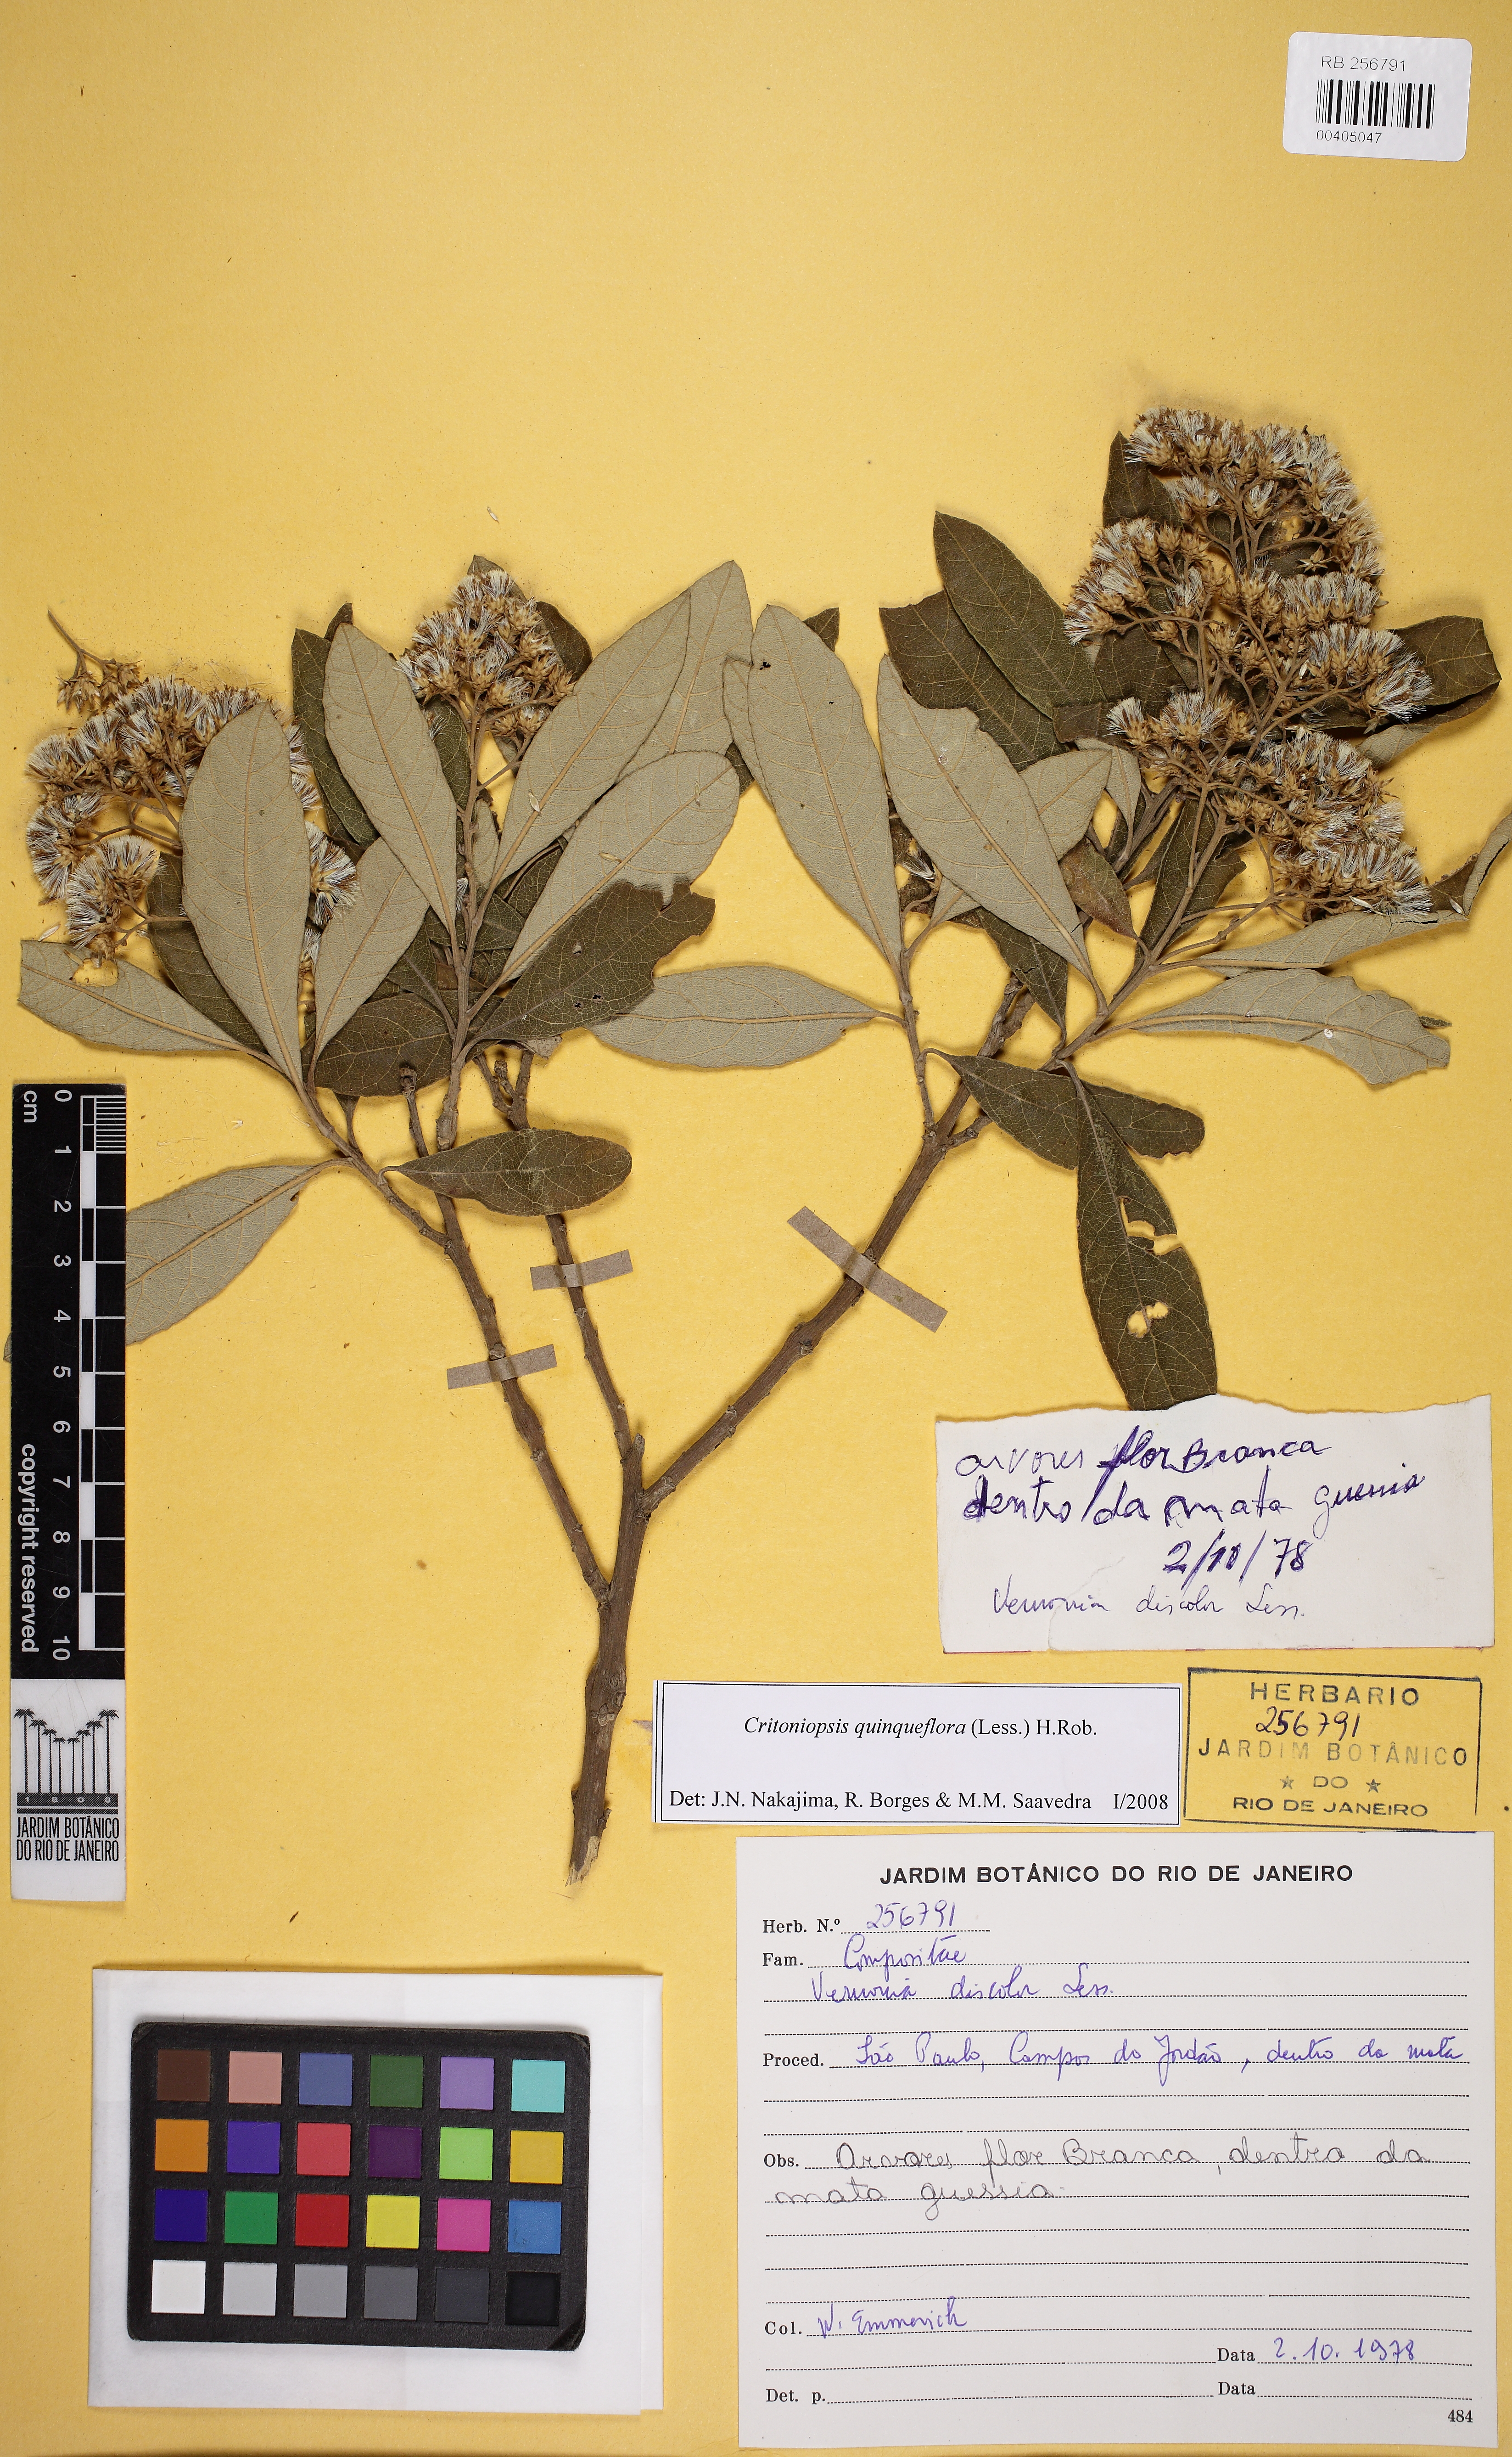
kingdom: Plantae
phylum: Tracheophyta
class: Magnoliopsida
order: Asterales
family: Asteraceae
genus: Critoniopsis
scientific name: Critoniopsis quinqueflora
